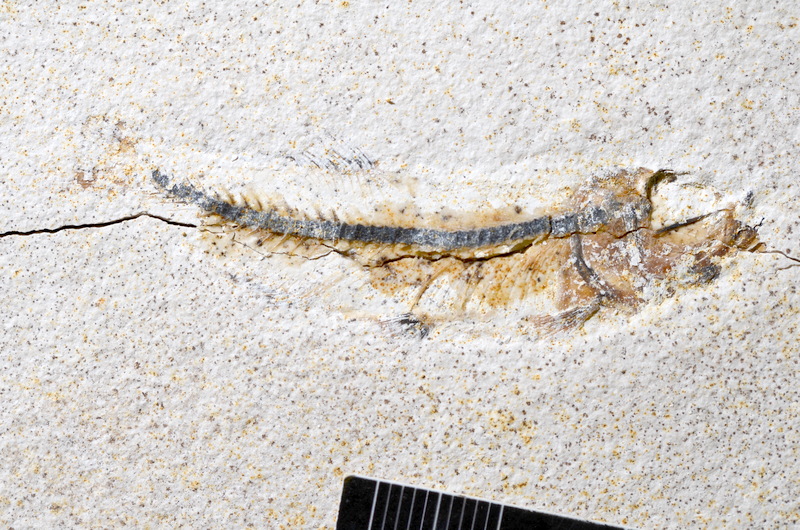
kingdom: Animalia
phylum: Chordata
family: Ascalaboidae
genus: Ebertichthys
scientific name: Ebertichthys ettlingensis
